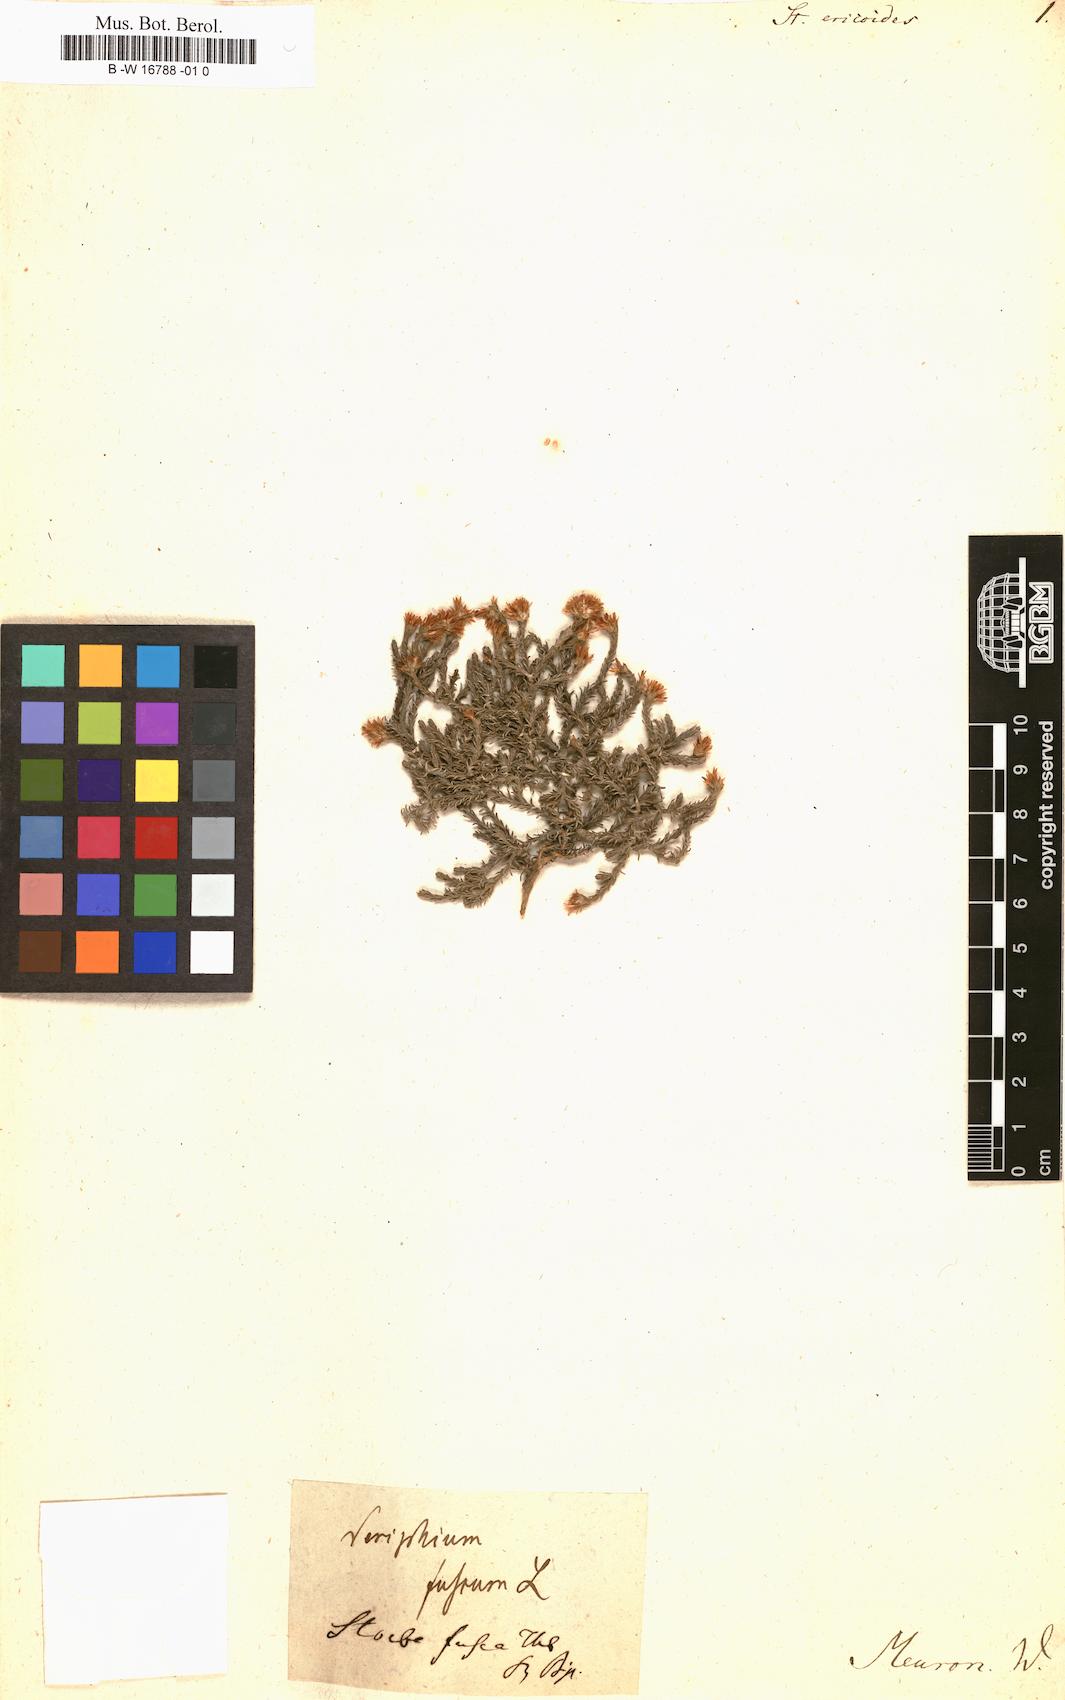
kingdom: Plantae
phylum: Tracheophyta
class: Magnoliopsida
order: Asterales
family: Asteraceae
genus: Disparago
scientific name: Disparago ericoides
